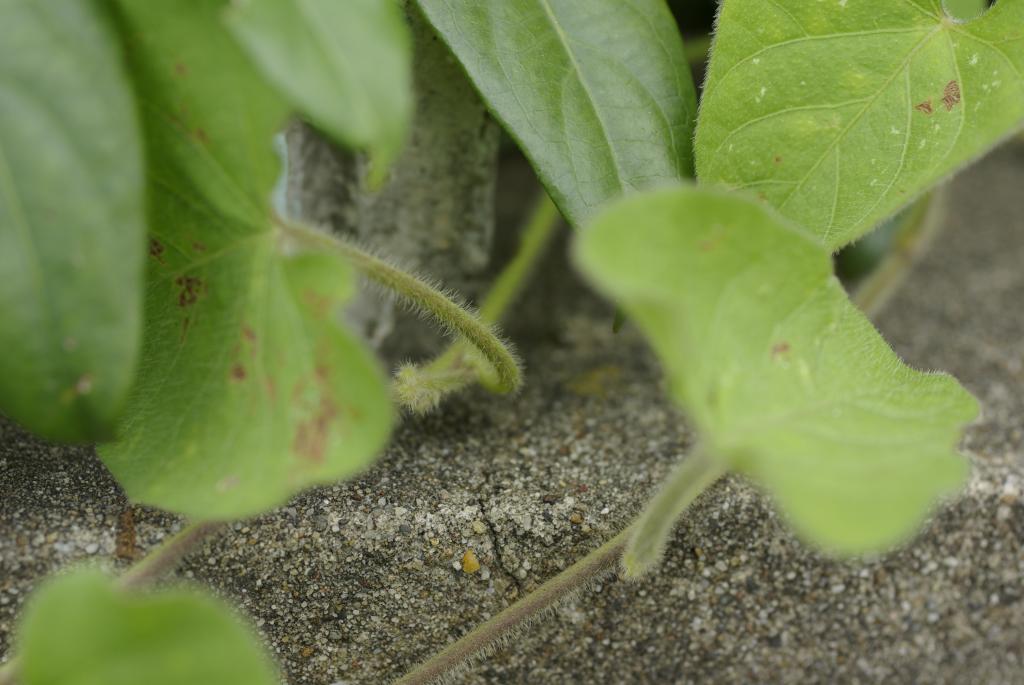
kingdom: Plantae
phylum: Tracheophyta
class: Magnoliopsida
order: Solanales
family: Convolvulaceae
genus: Ipomoea
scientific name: Ipomoea biflora
